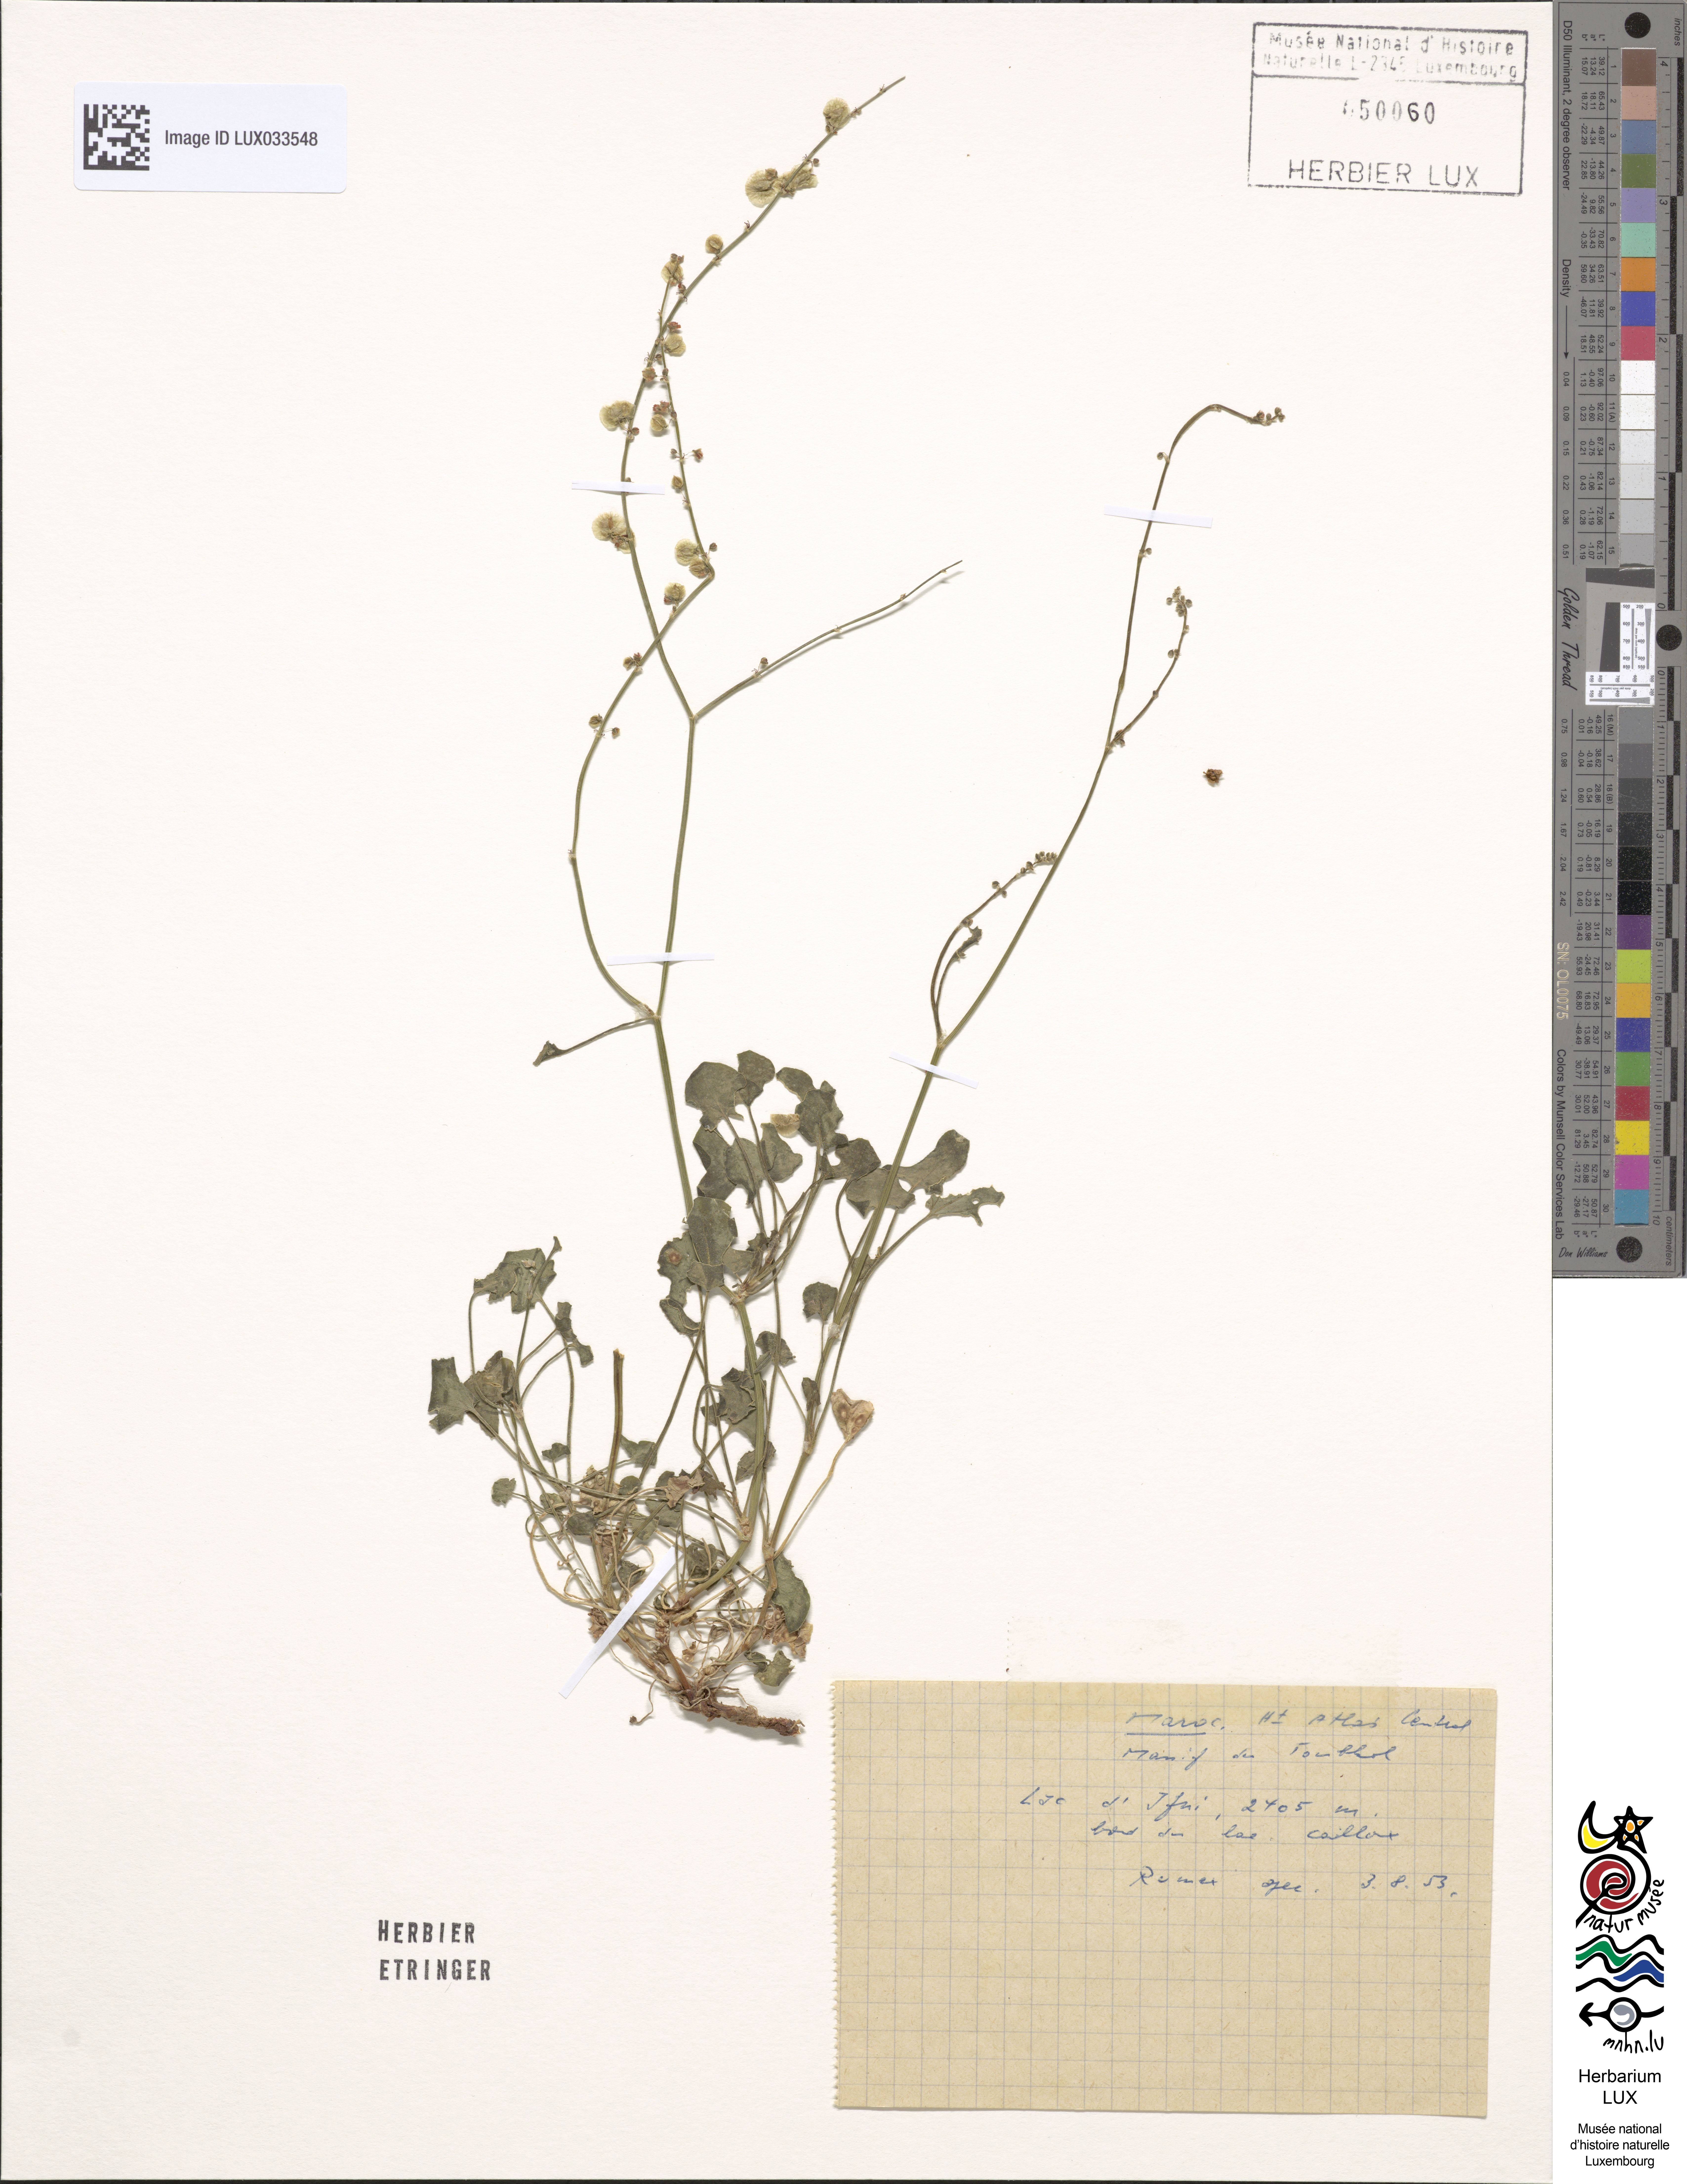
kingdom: Plantae
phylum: Tracheophyta
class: Magnoliopsida
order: Caryophyllales
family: Polygonaceae
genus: Rumex
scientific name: Rumex
